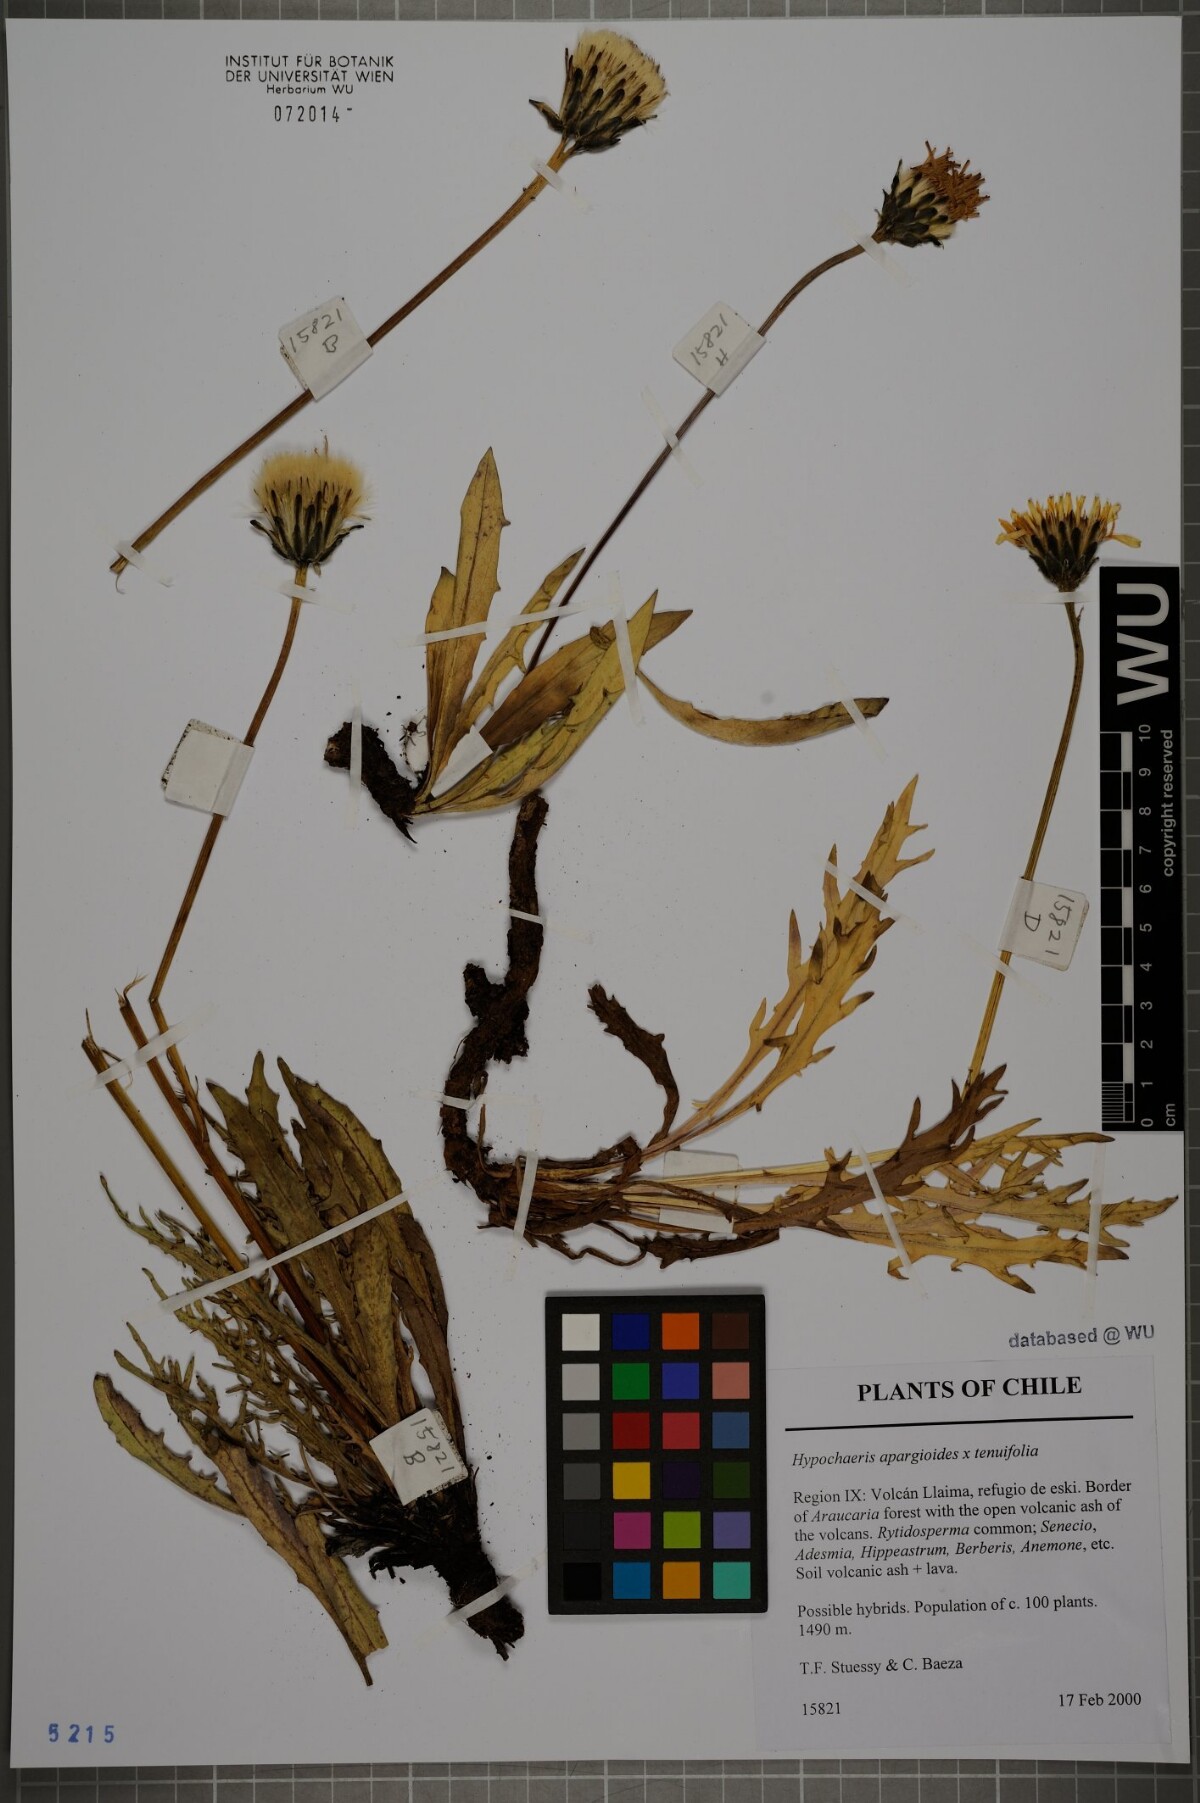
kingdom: Plantae
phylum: Tracheophyta
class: Magnoliopsida
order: Asterales
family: Asteraceae
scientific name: Asteraceae
